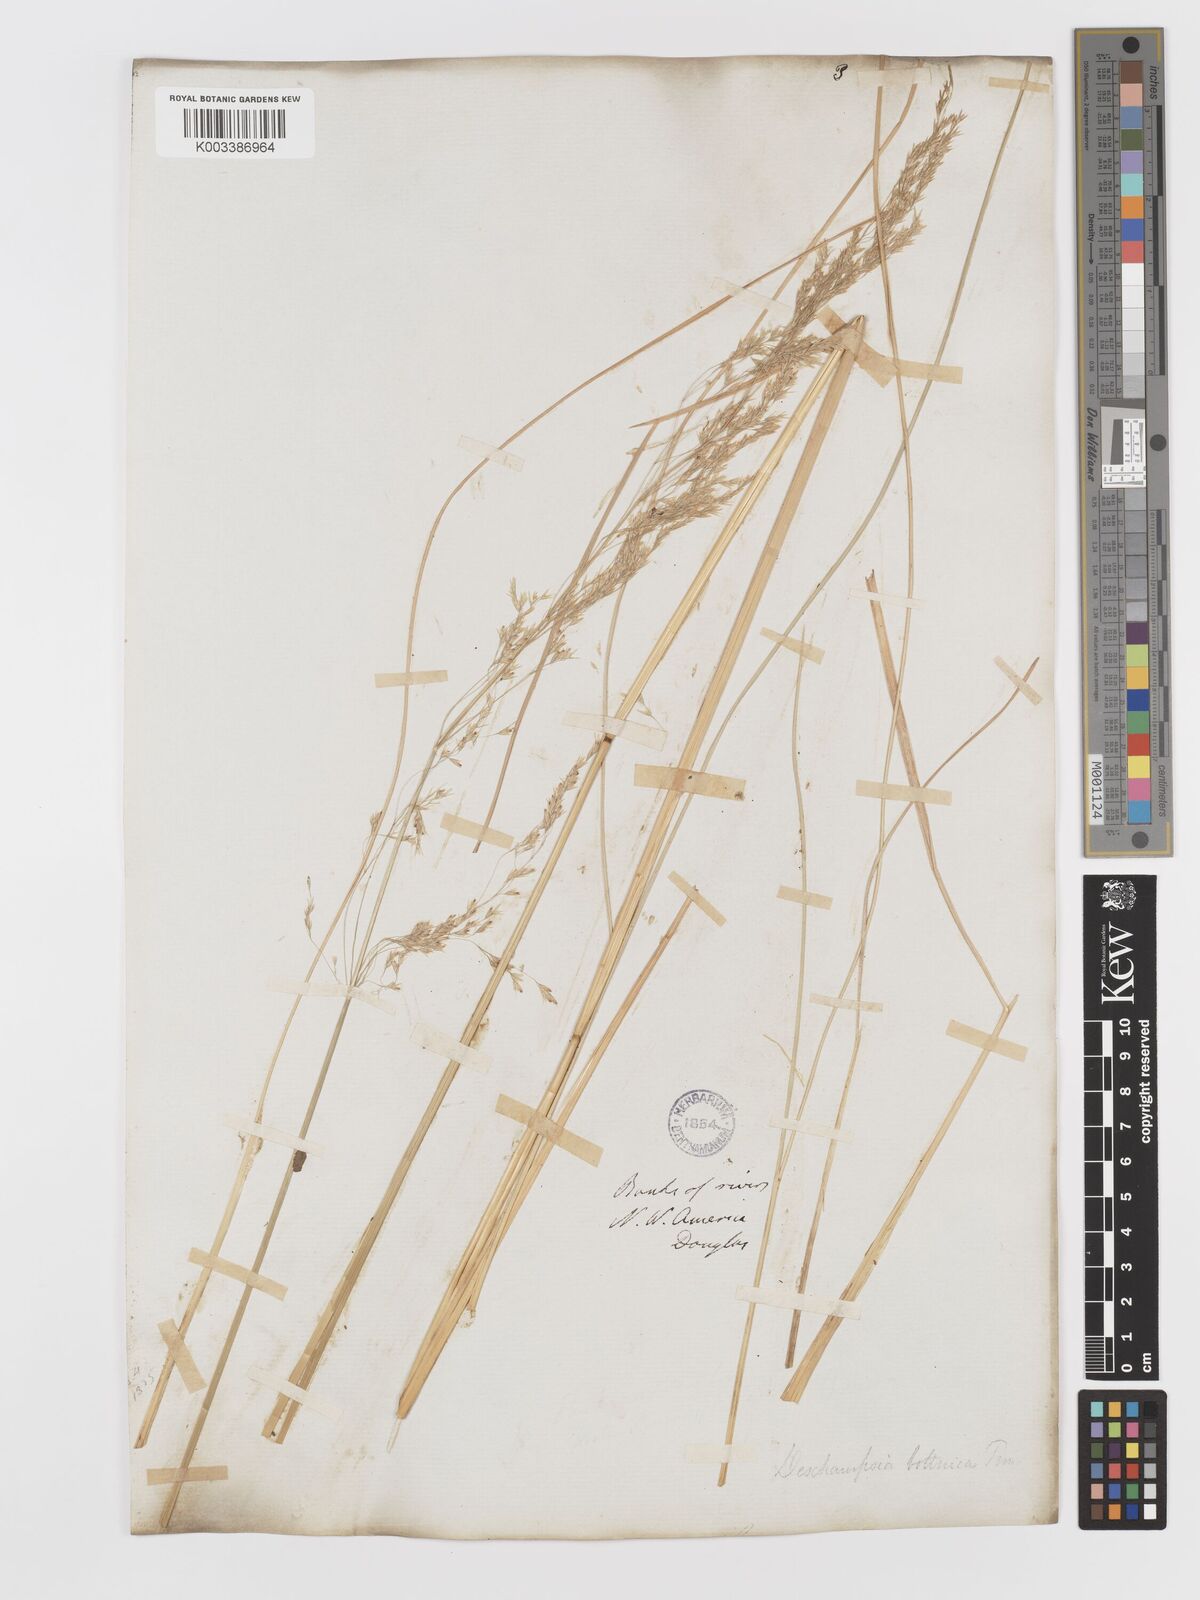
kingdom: Plantae
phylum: Tracheophyta
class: Liliopsida
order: Poales
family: Poaceae
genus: Deschampsia
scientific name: Deschampsia elongata
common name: Slender hairgrass
